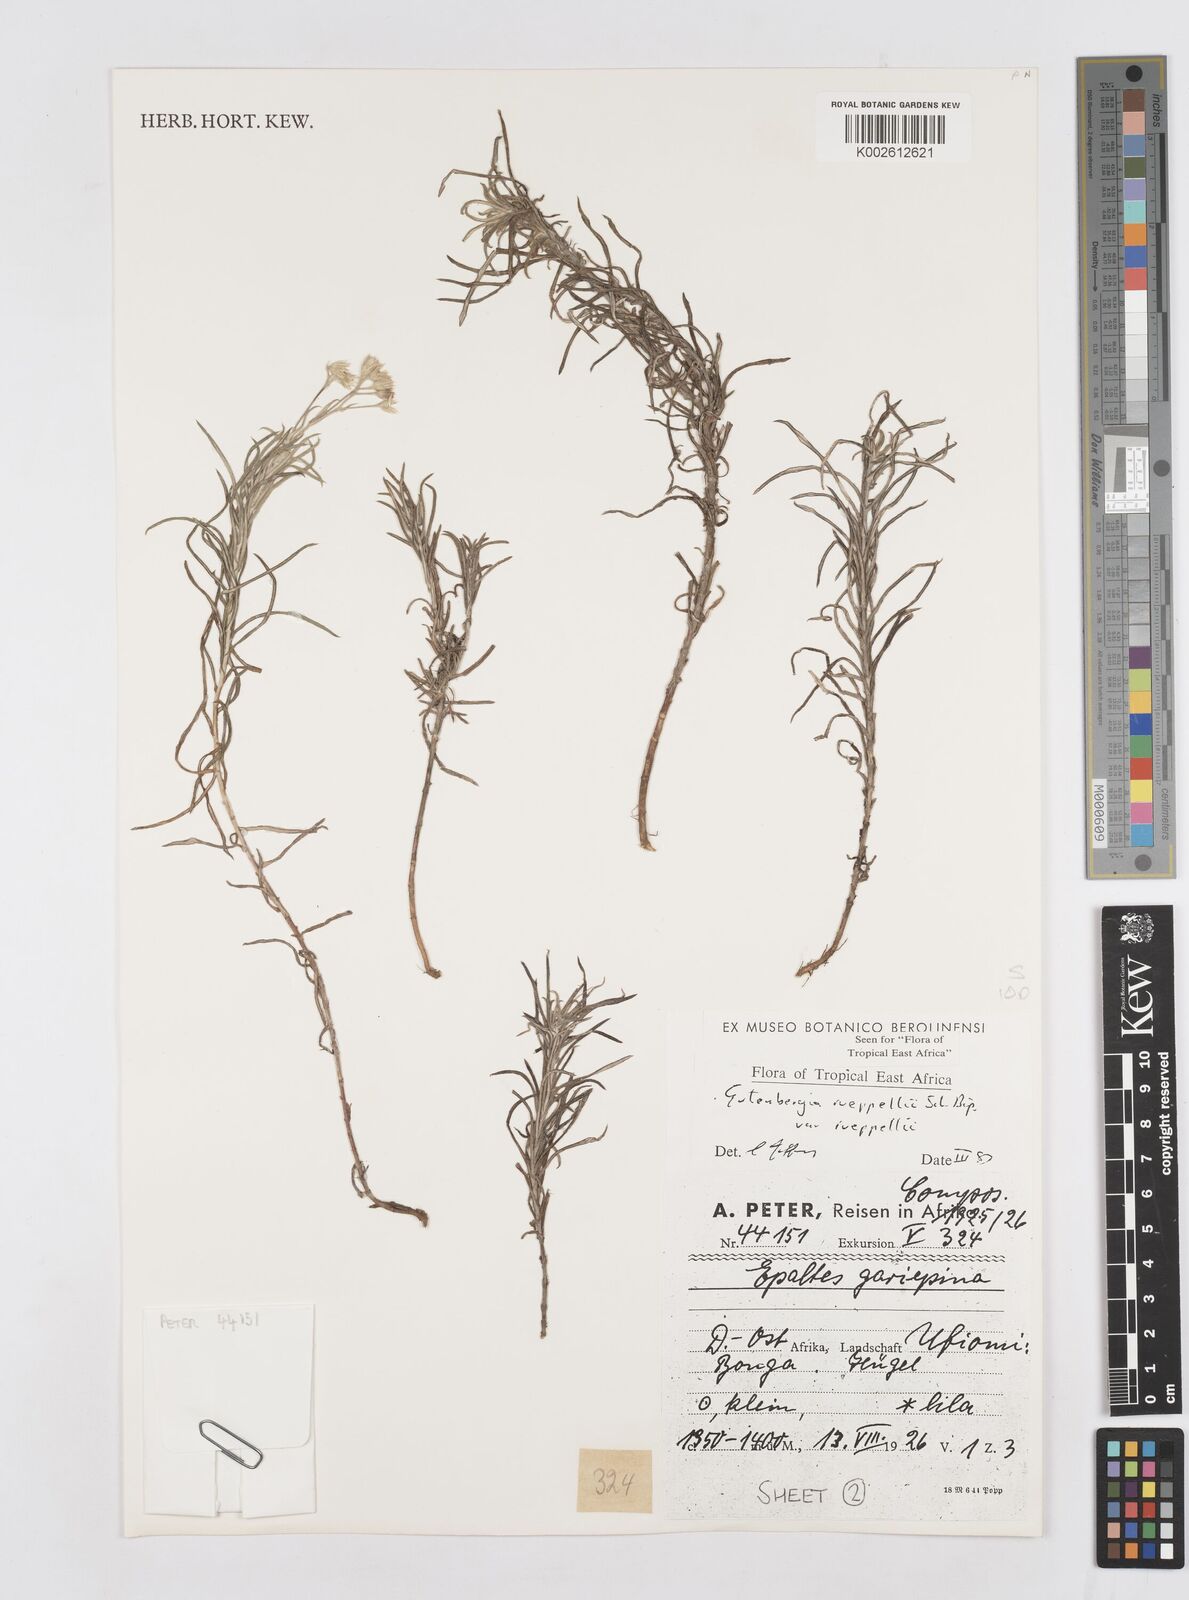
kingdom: Plantae
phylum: Tracheophyta
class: Magnoliopsida
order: Asterales
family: Asteraceae
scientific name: Asteraceae
